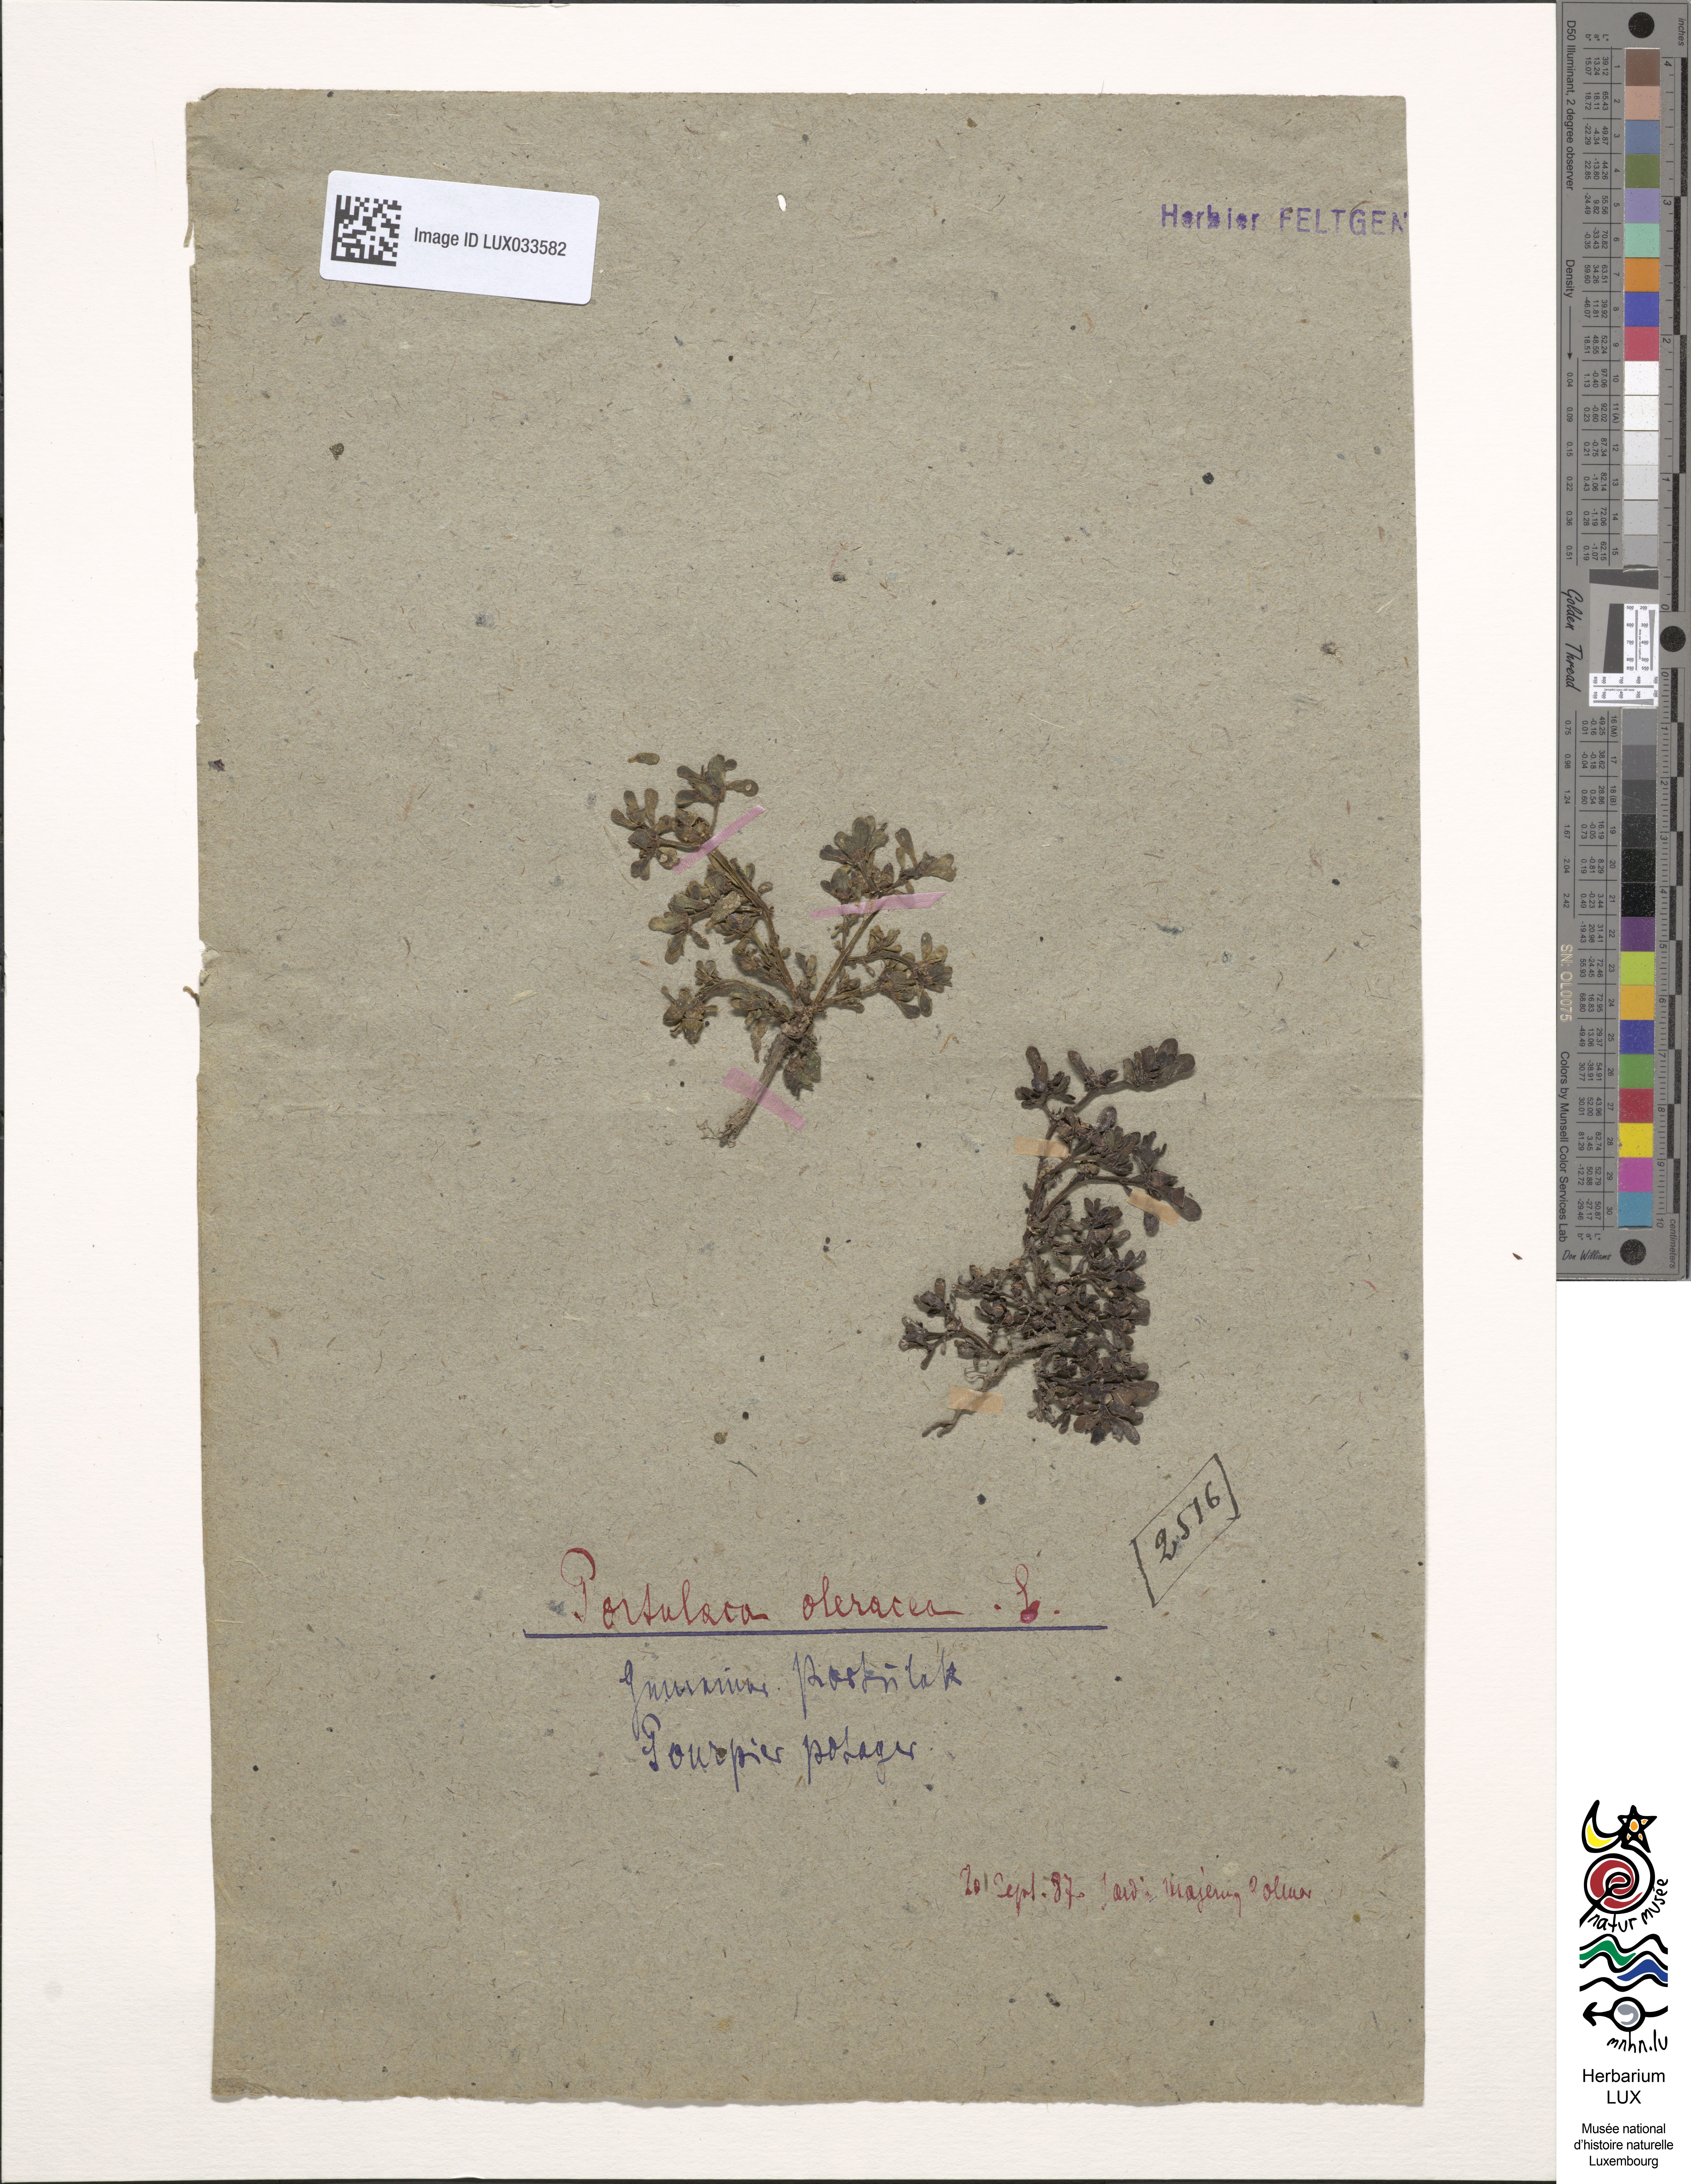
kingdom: Plantae
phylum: Tracheophyta
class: Magnoliopsida
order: Caryophyllales
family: Portulacaceae
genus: Portulaca
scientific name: Portulaca trituberculata
